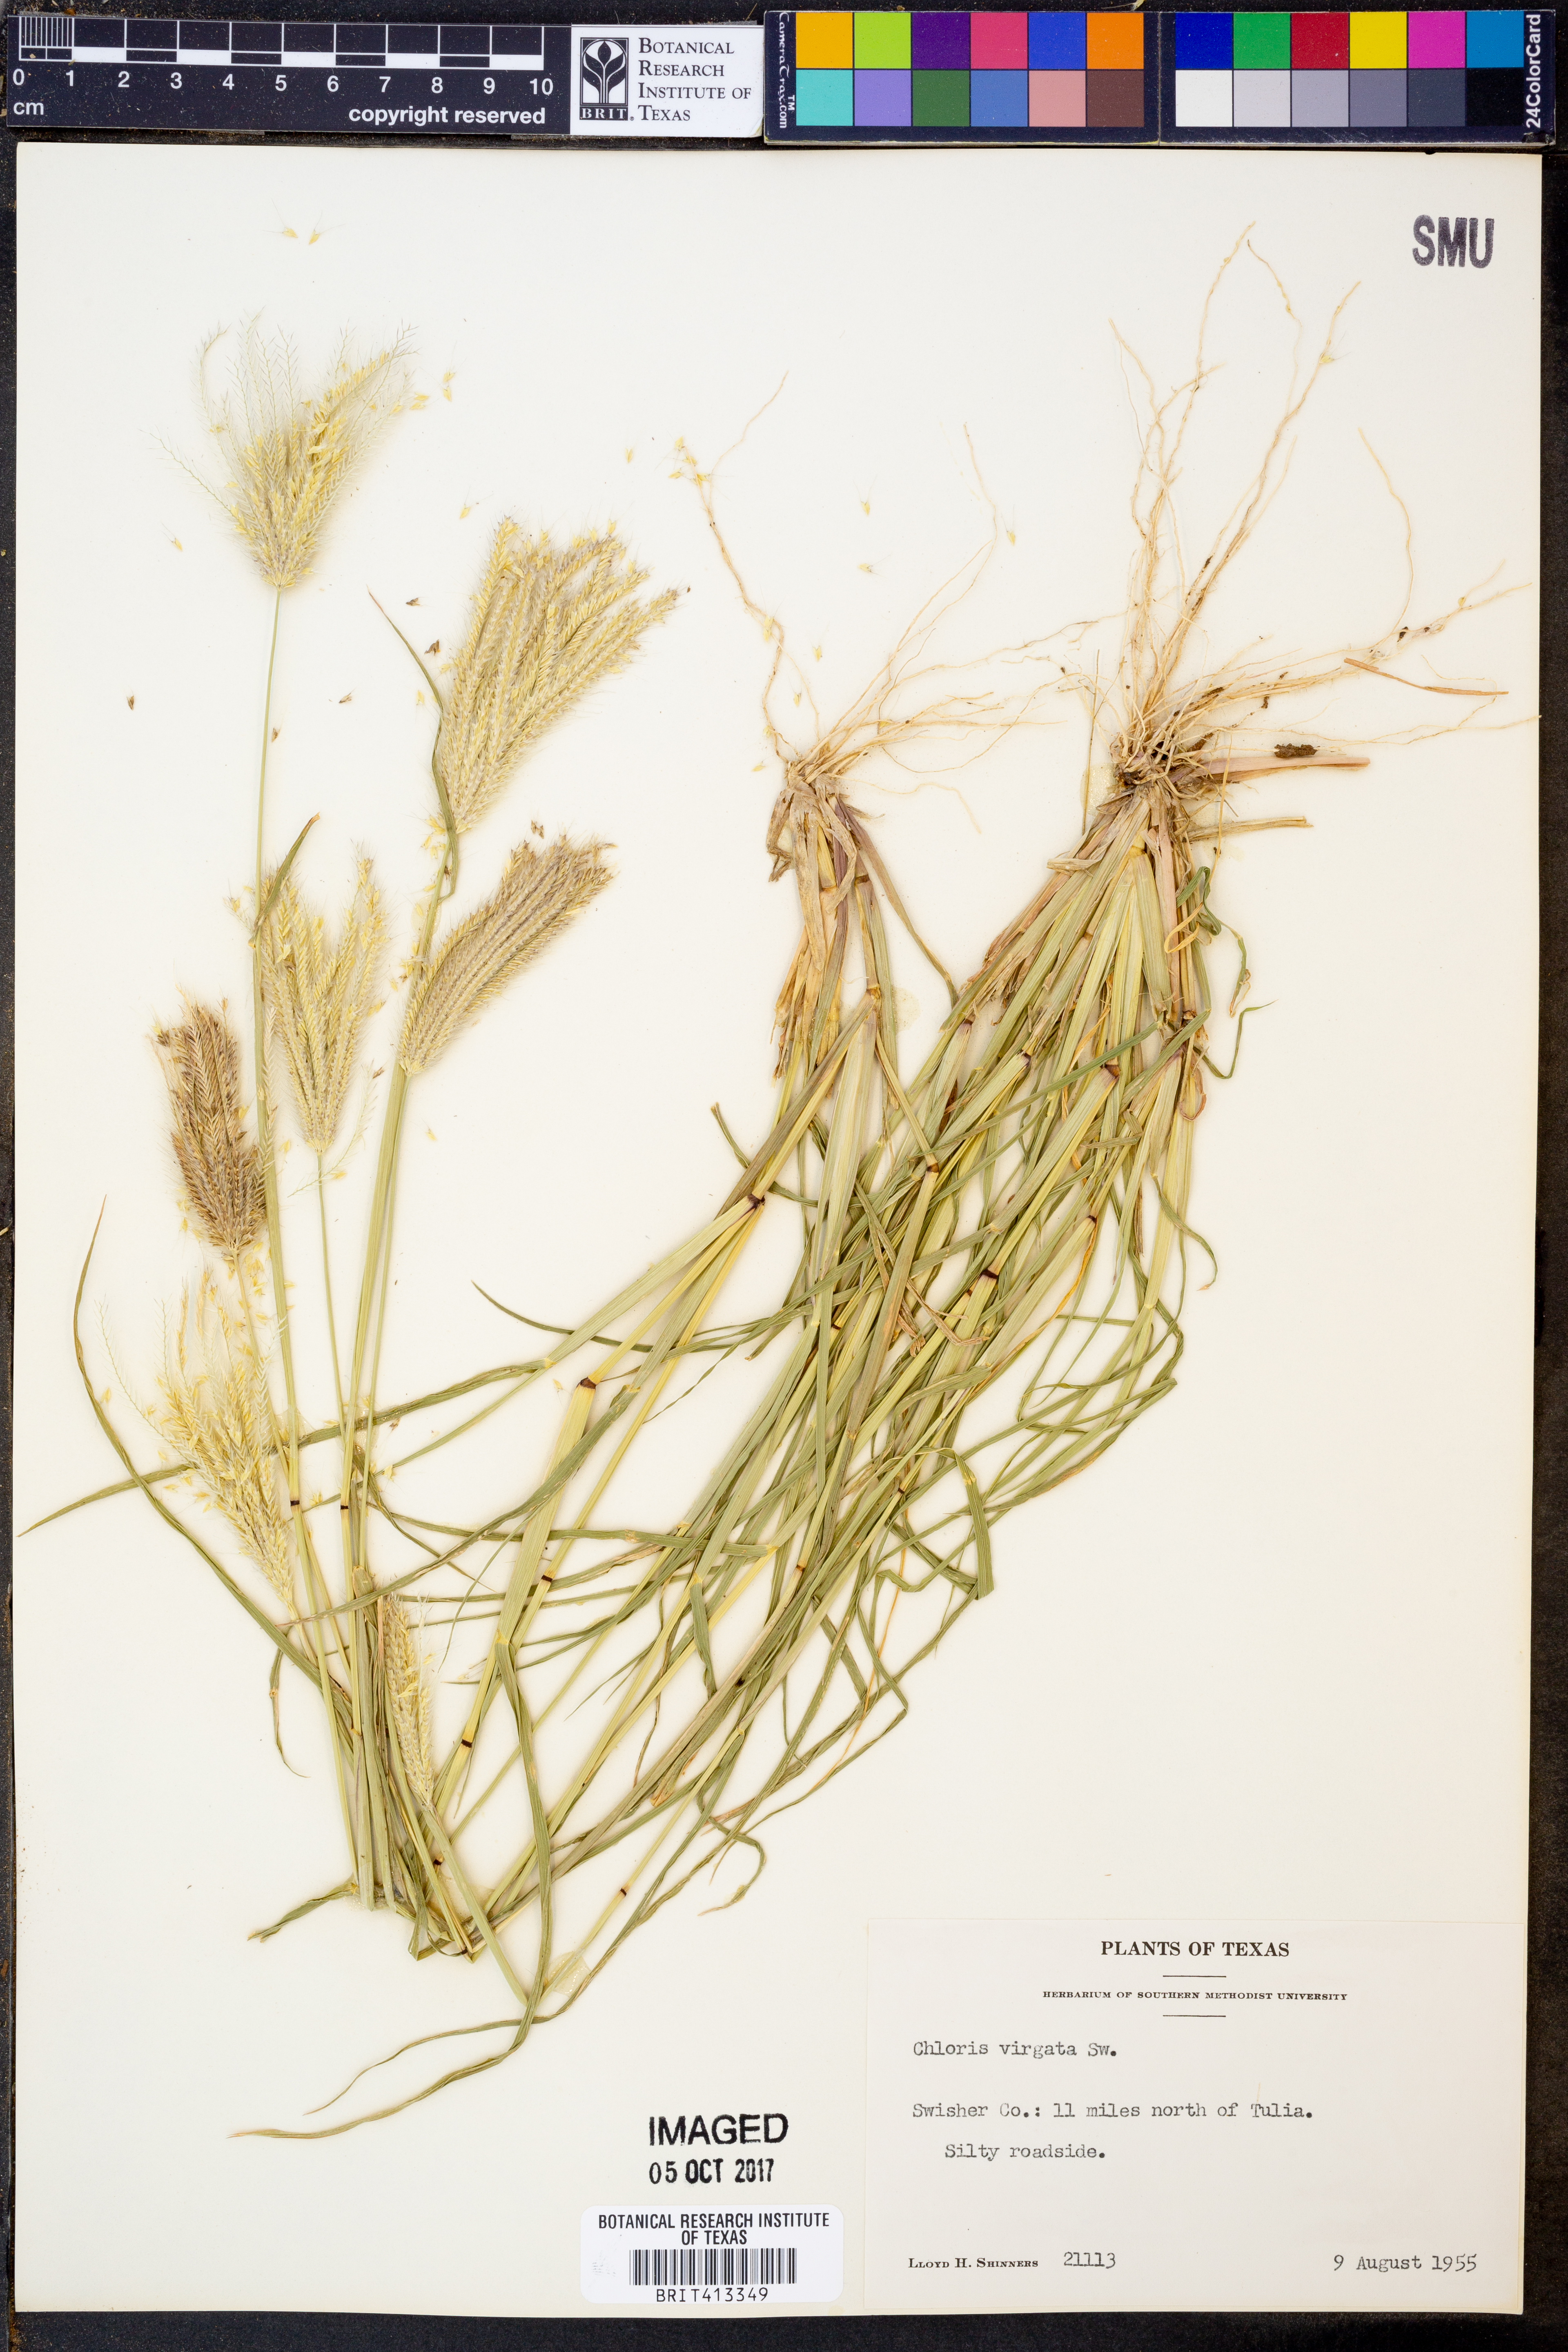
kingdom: Plantae
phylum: Tracheophyta
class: Liliopsida
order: Poales
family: Poaceae
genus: Chloris
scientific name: Chloris virgata
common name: Feathery rhodes-grass
